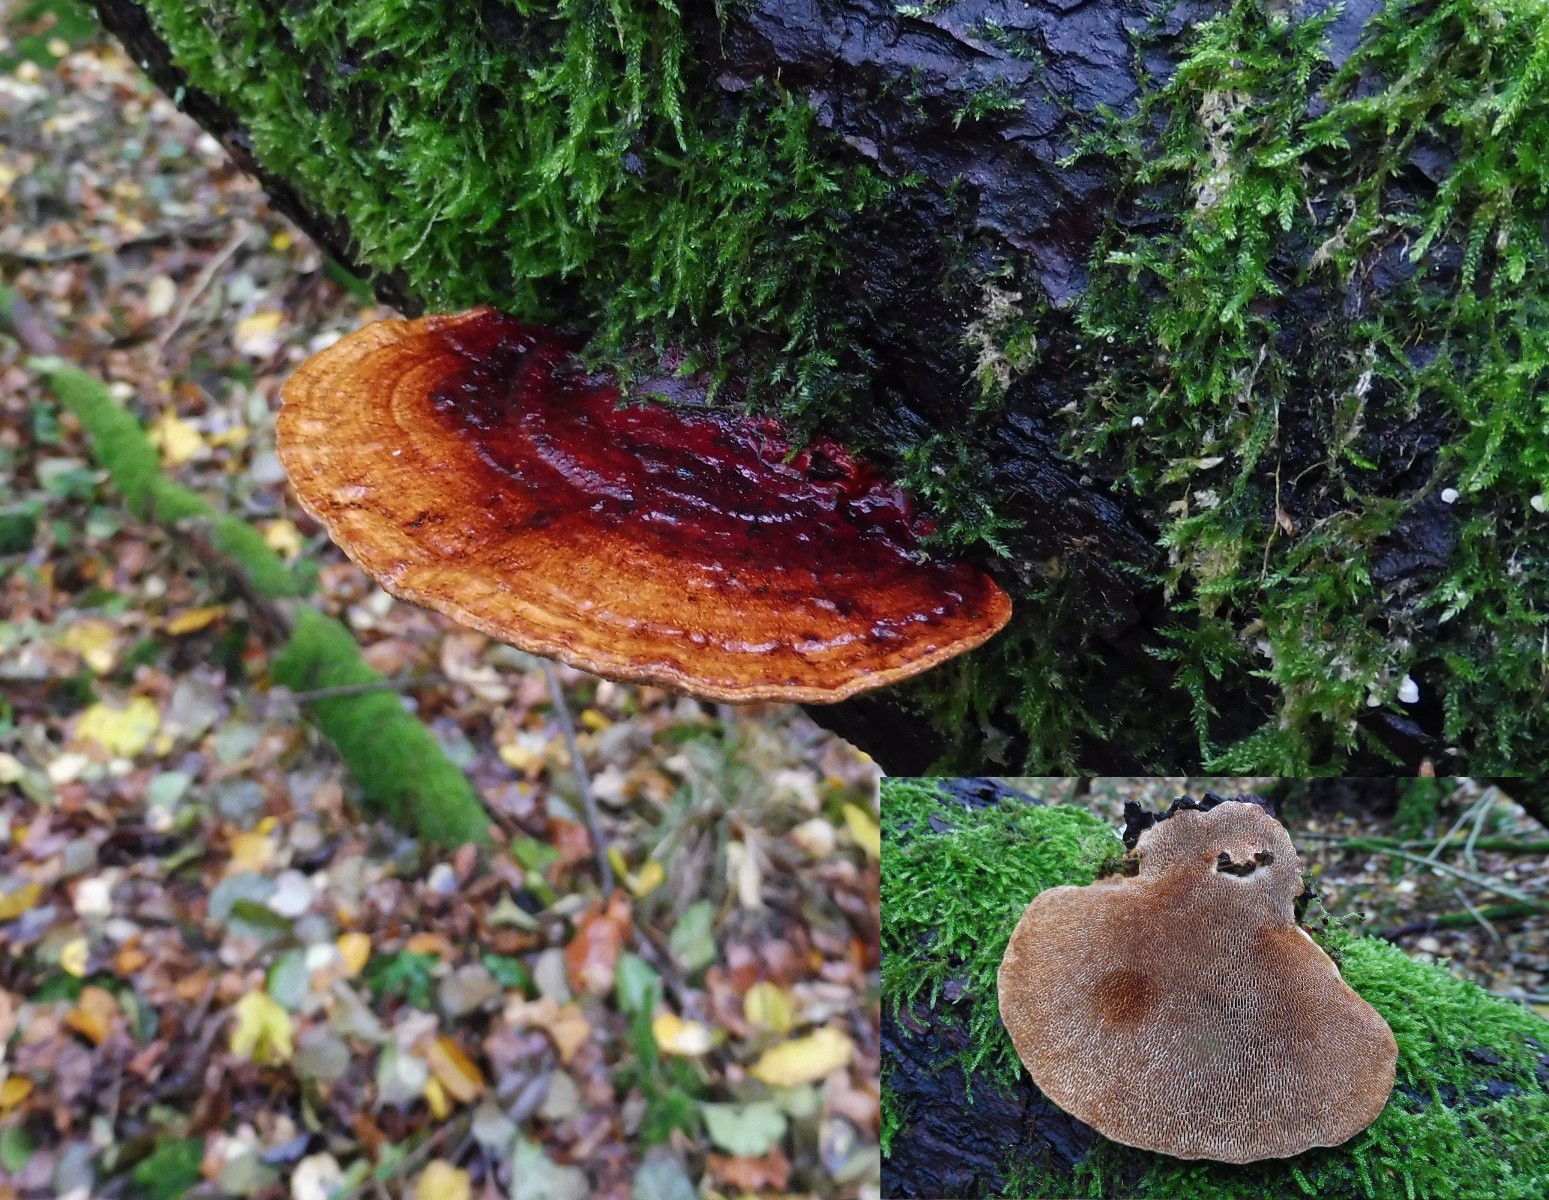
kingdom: Fungi
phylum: Basidiomycota
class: Agaricomycetes
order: Polyporales
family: Polyporaceae
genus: Daedaleopsis
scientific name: Daedaleopsis confragosa
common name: rødmende læderporesvamp
